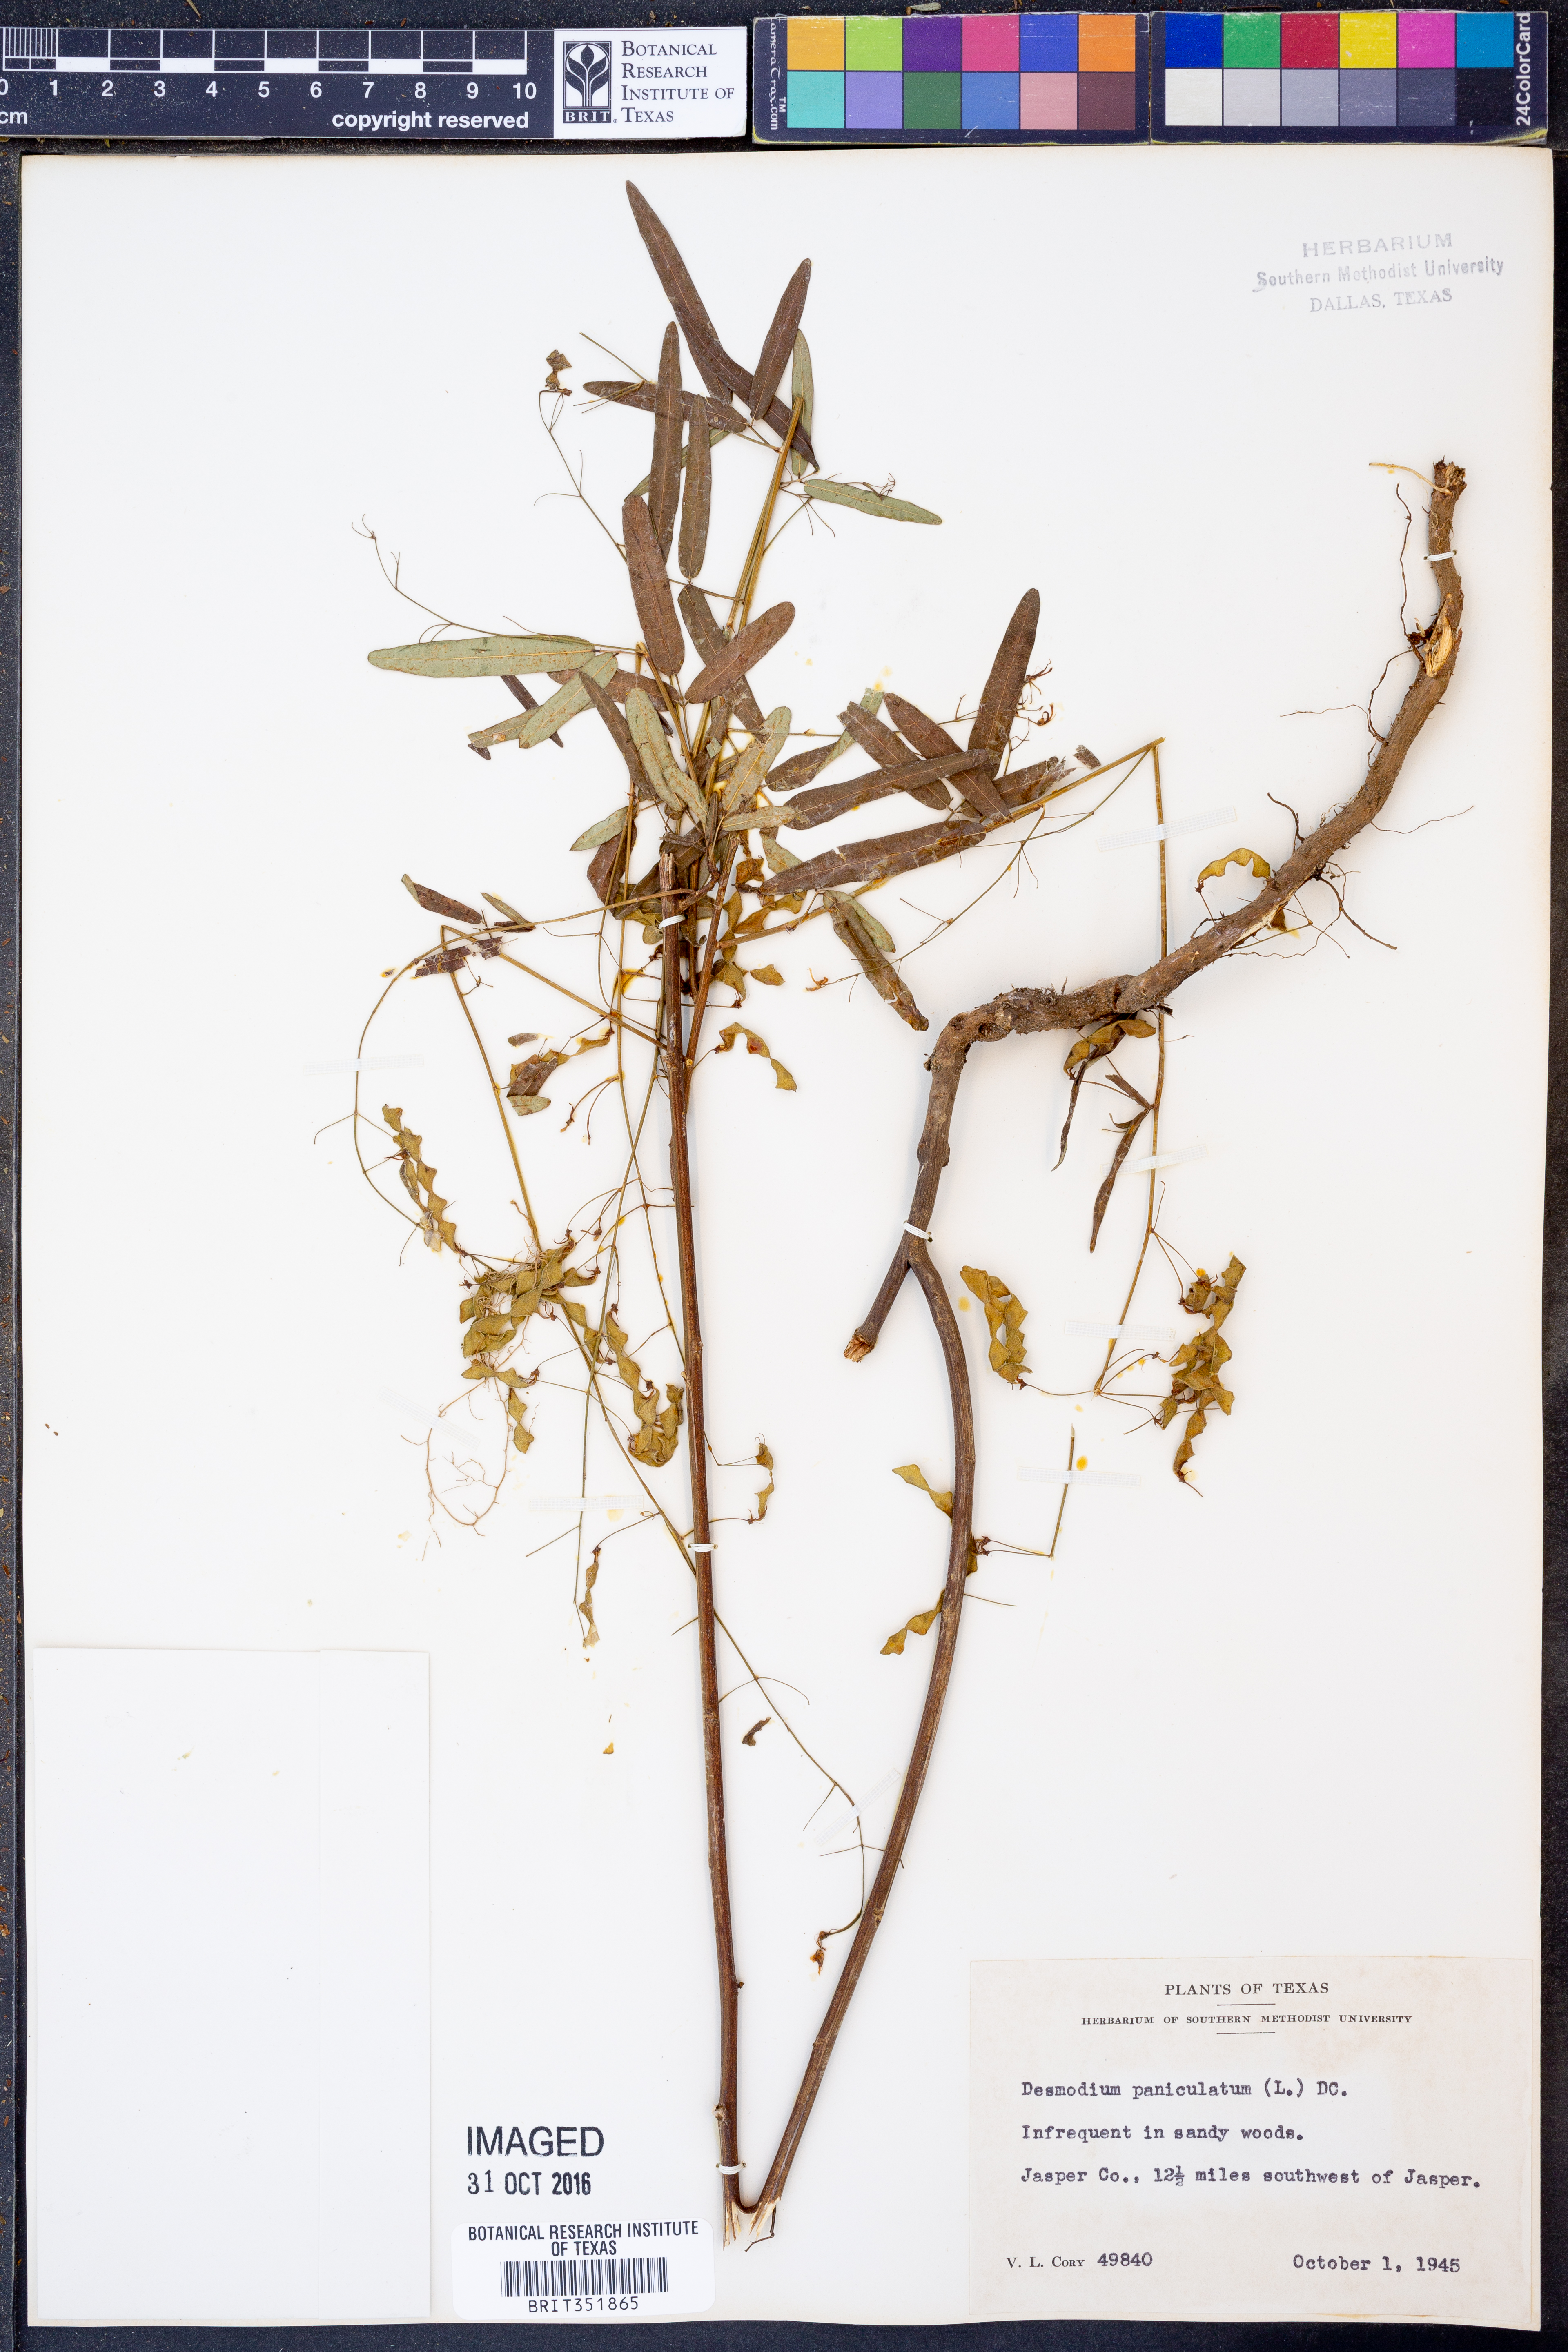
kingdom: Plantae
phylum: Tracheophyta
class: Magnoliopsida
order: Fabales
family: Fabaceae
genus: Desmodium
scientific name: Desmodium paniculatum
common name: Panicled tick-clover
